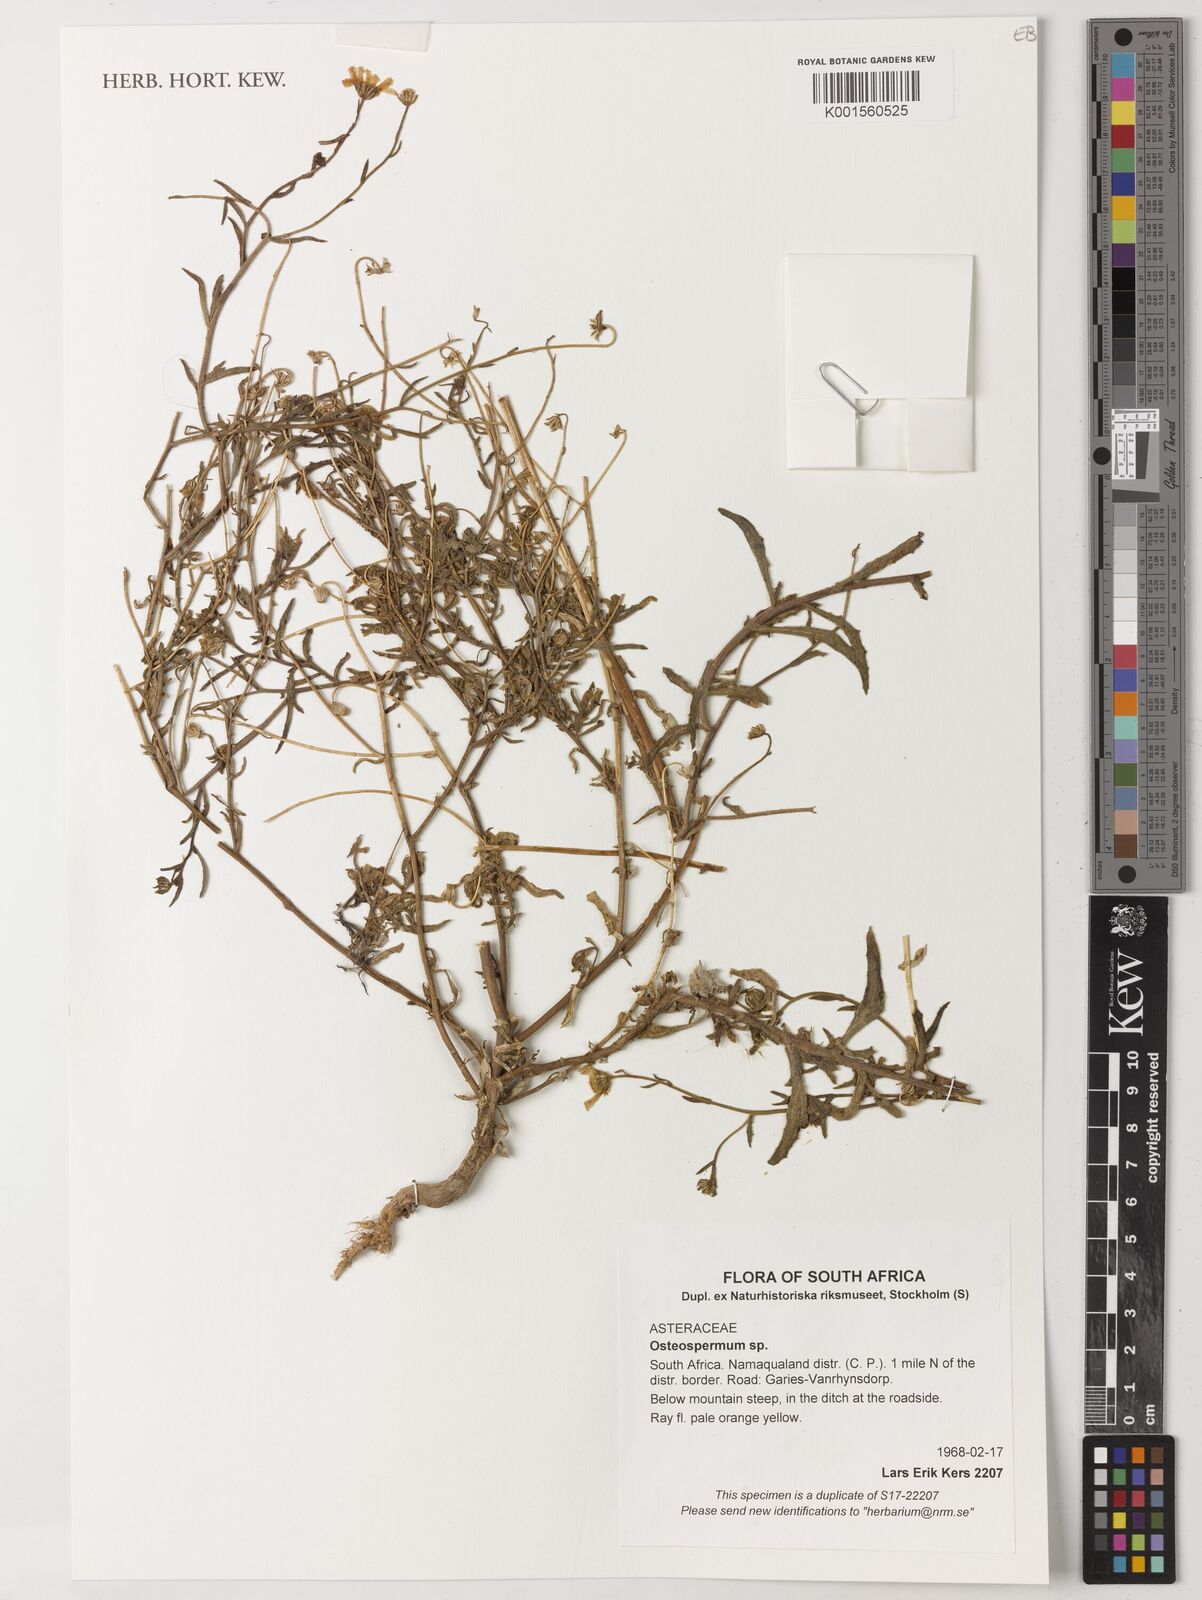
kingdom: Plantae
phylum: Tracheophyta
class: Magnoliopsida
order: Asterales
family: Asteraceae
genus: Osteospermum
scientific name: Osteospermum
